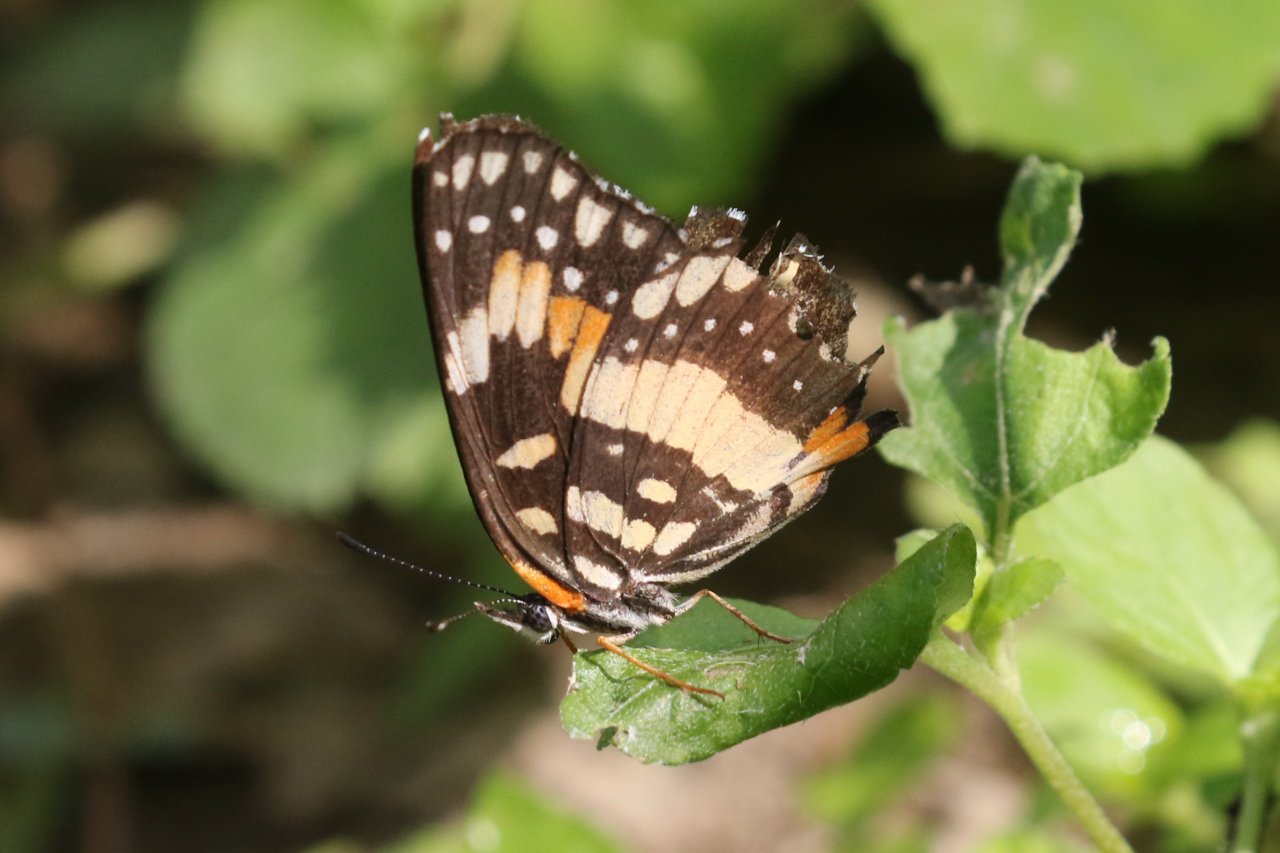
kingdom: Animalia
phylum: Arthropoda
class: Insecta
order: Lepidoptera
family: Nymphalidae
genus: Chlosyne
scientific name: Chlosyne lacinia
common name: Bordered Patch
